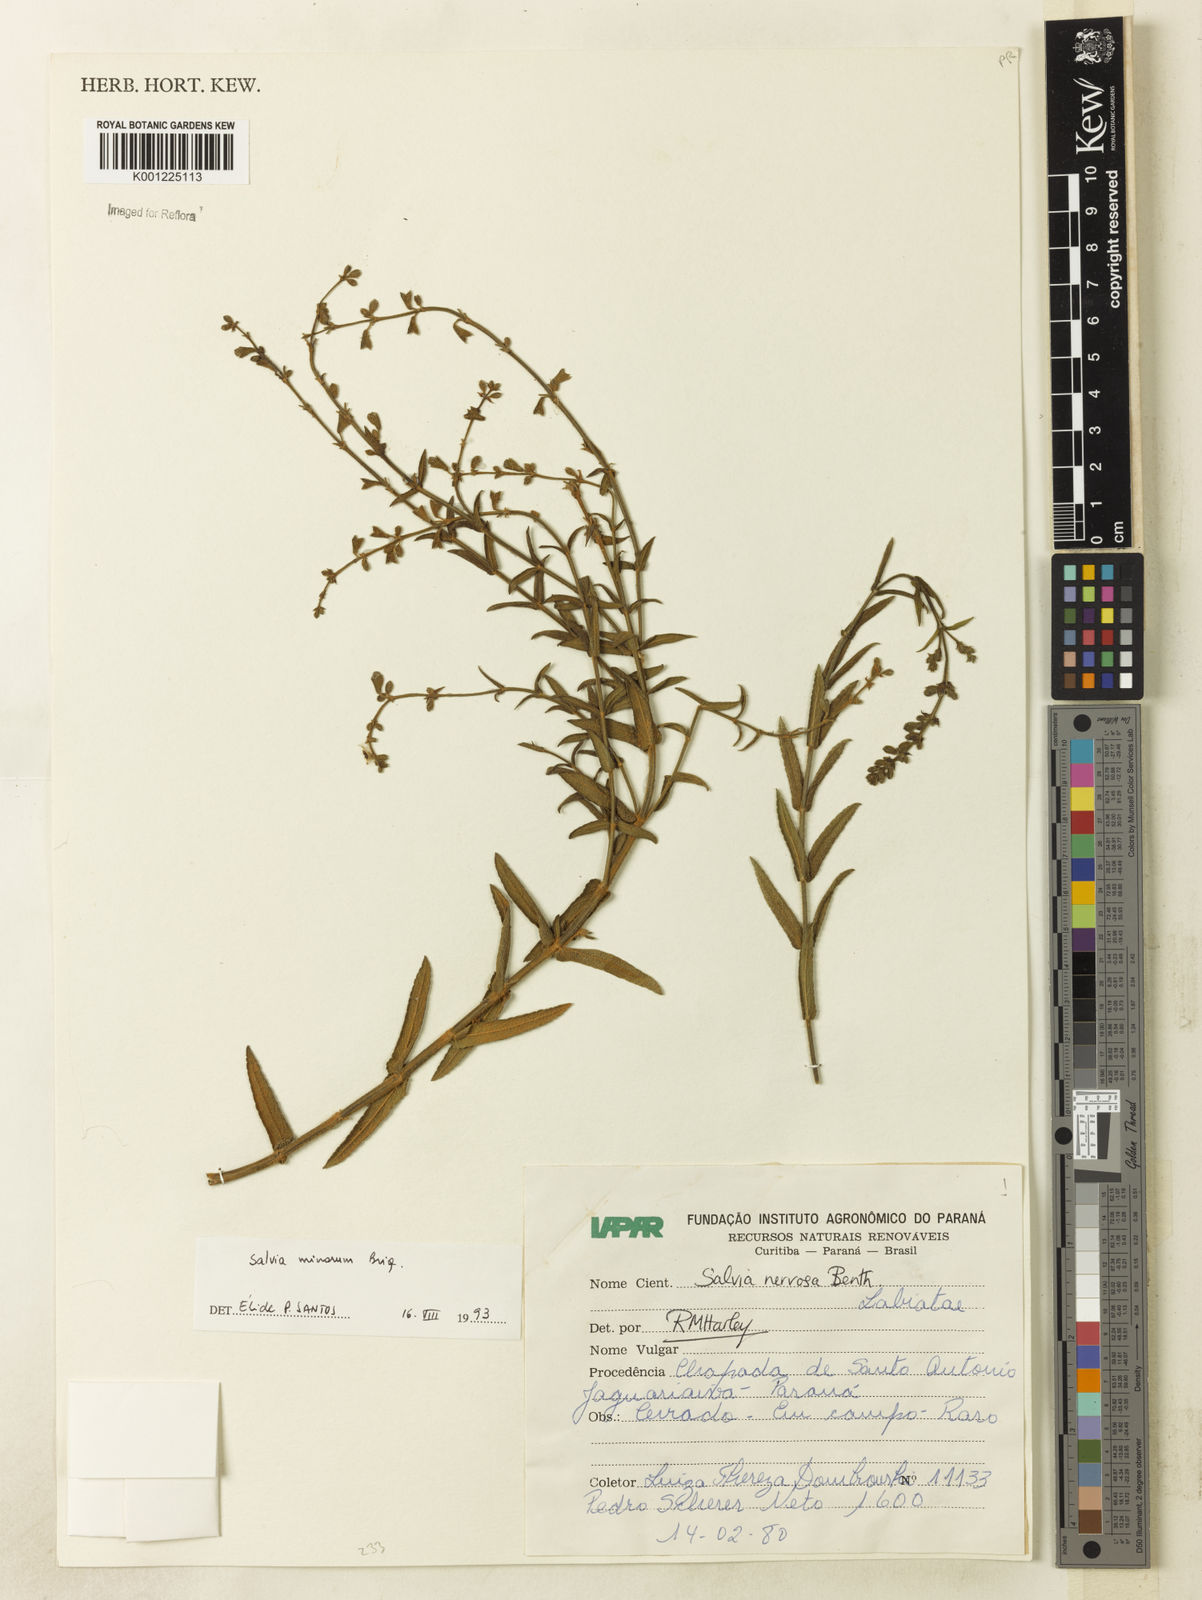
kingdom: Plantae
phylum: Tracheophyta
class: Magnoliopsida
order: Lamiales
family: Lamiaceae
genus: Salvia
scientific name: Salvia minarum
